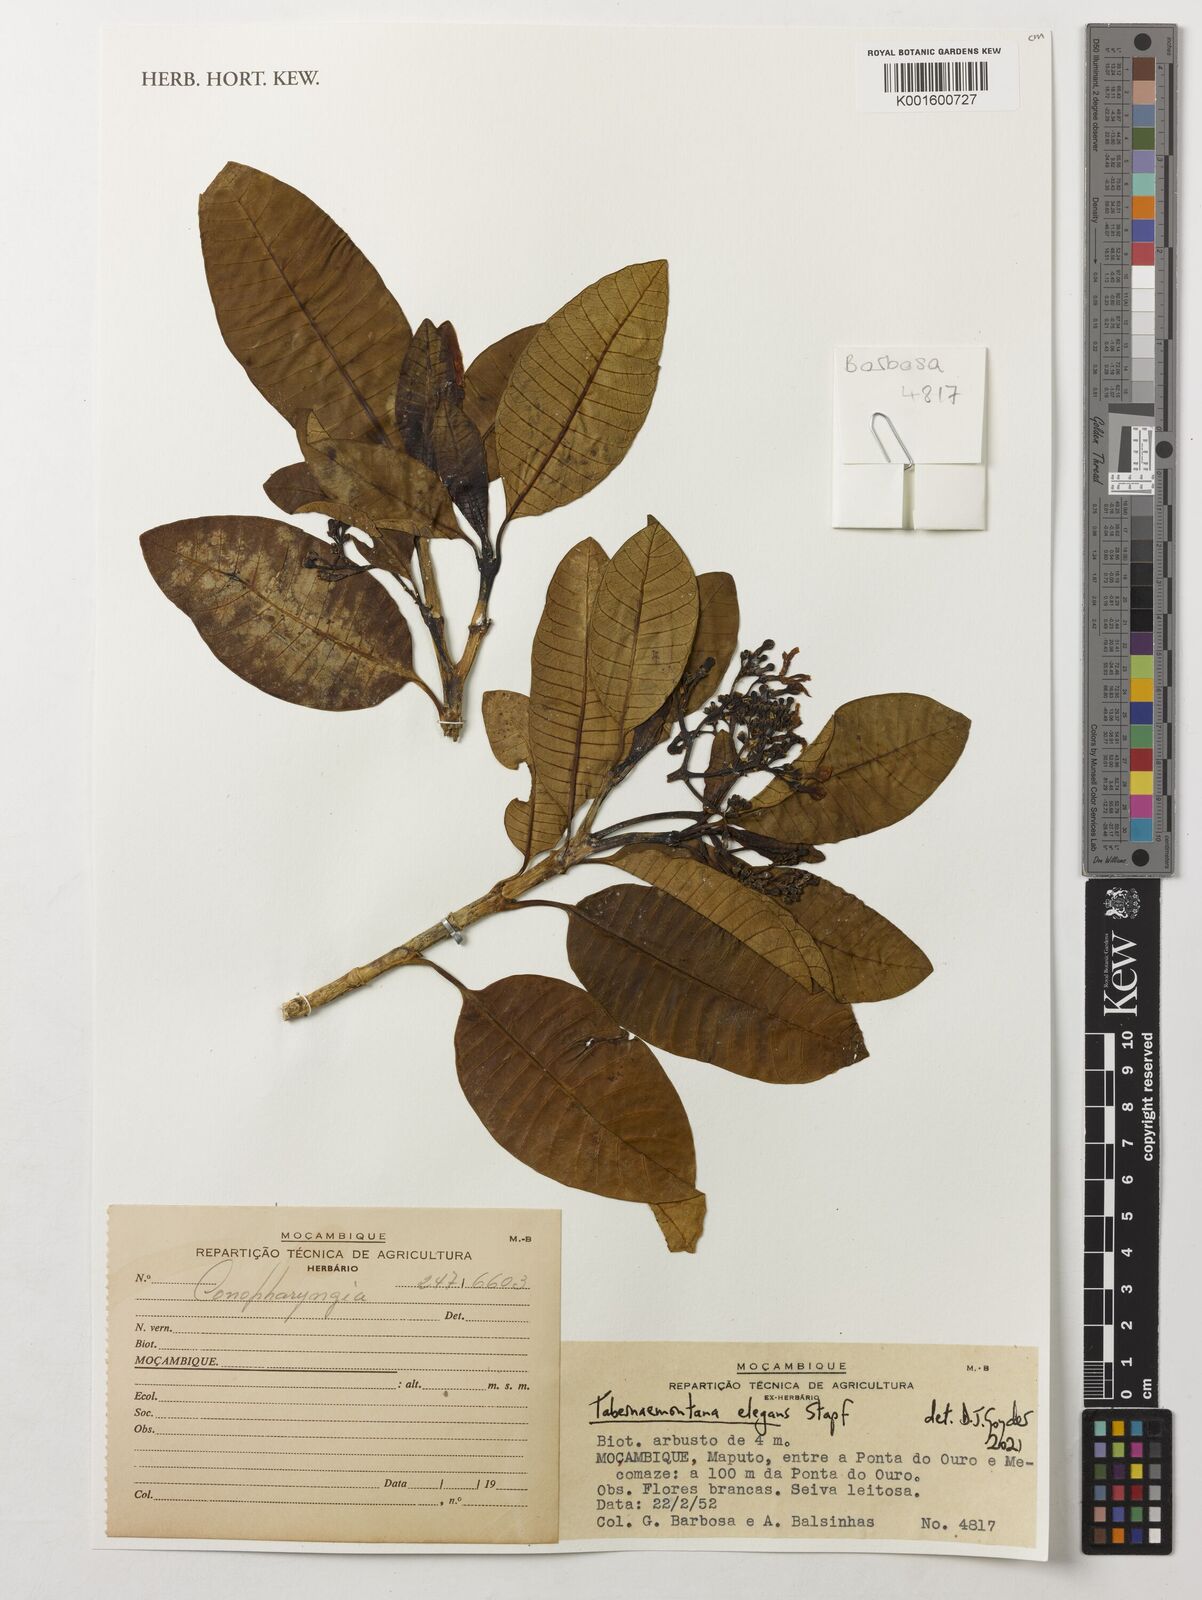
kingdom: Plantae
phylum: Tracheophyta
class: Magnoliopsida
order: Gentianales
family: Apocynaceae
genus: Tabernaemontana
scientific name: Tabernaemontana elegans
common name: Toadtree
